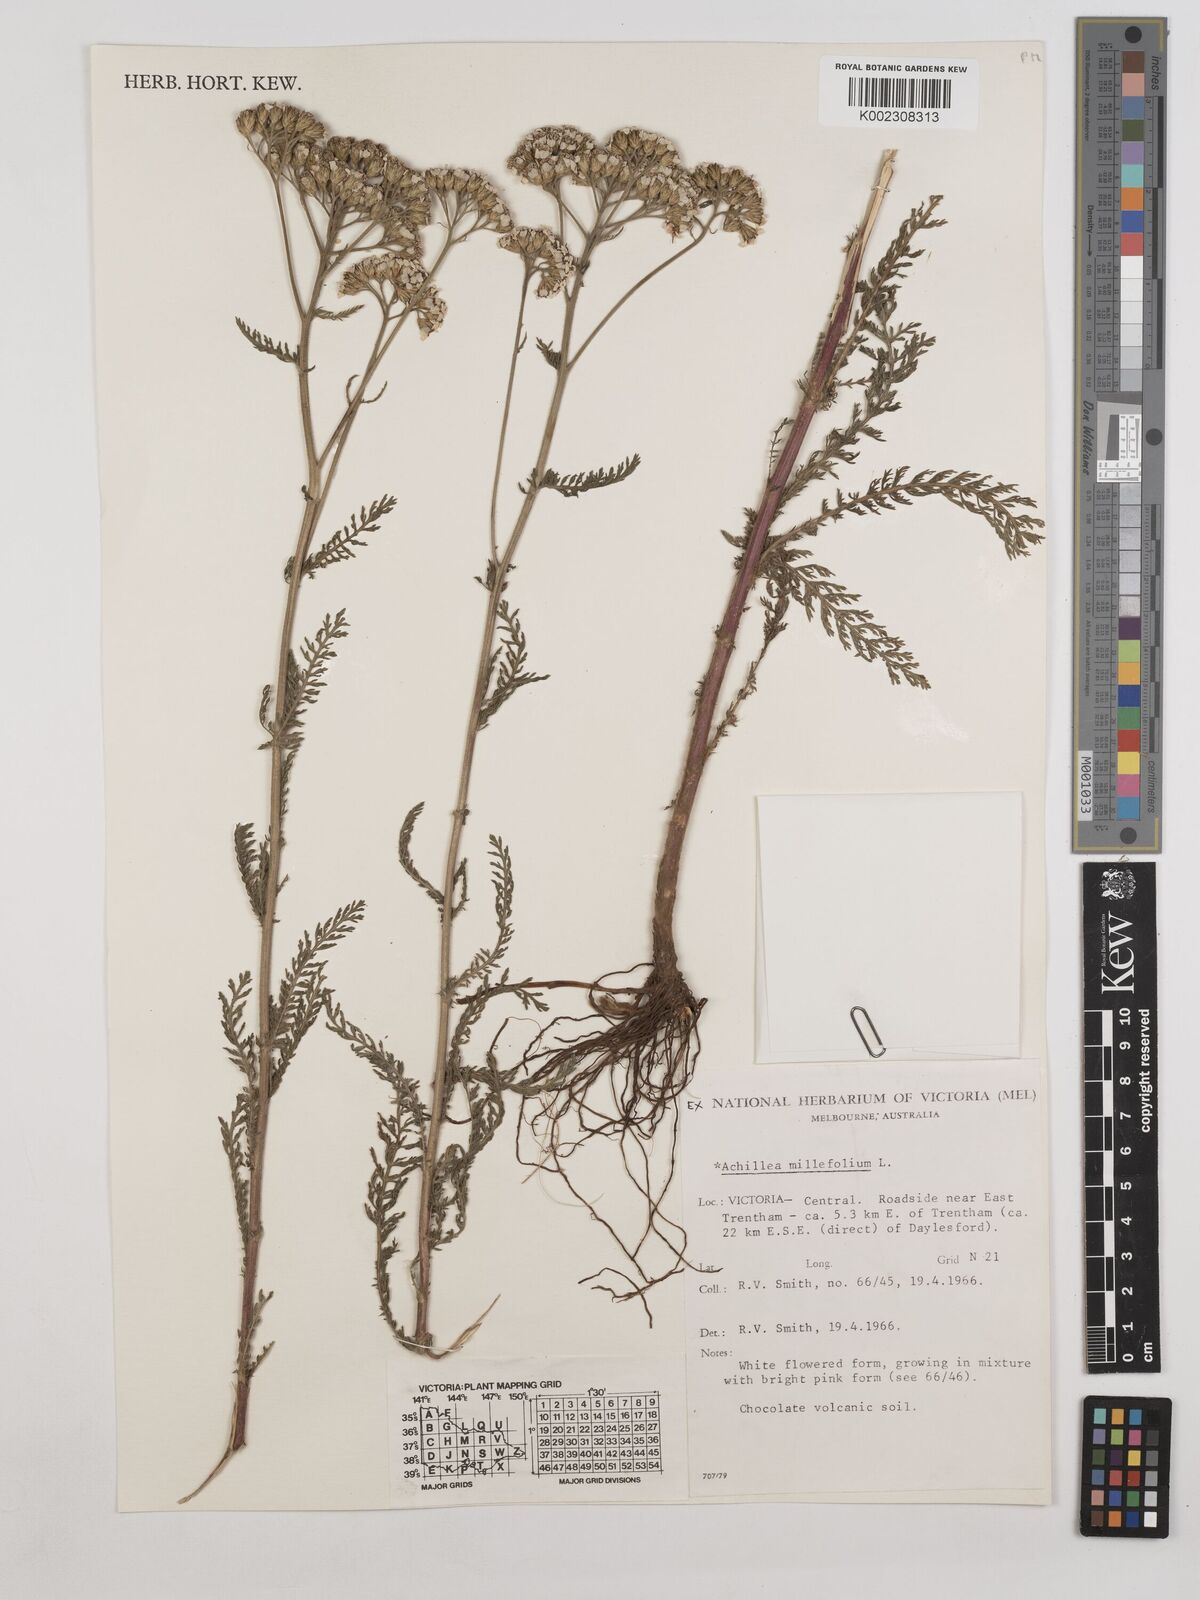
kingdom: Plantae
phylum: Tracheophyta
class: Magnoliopsida
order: Asterales
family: Asteraceae
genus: Achillea
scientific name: Achillea millefolium
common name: Yarrow
